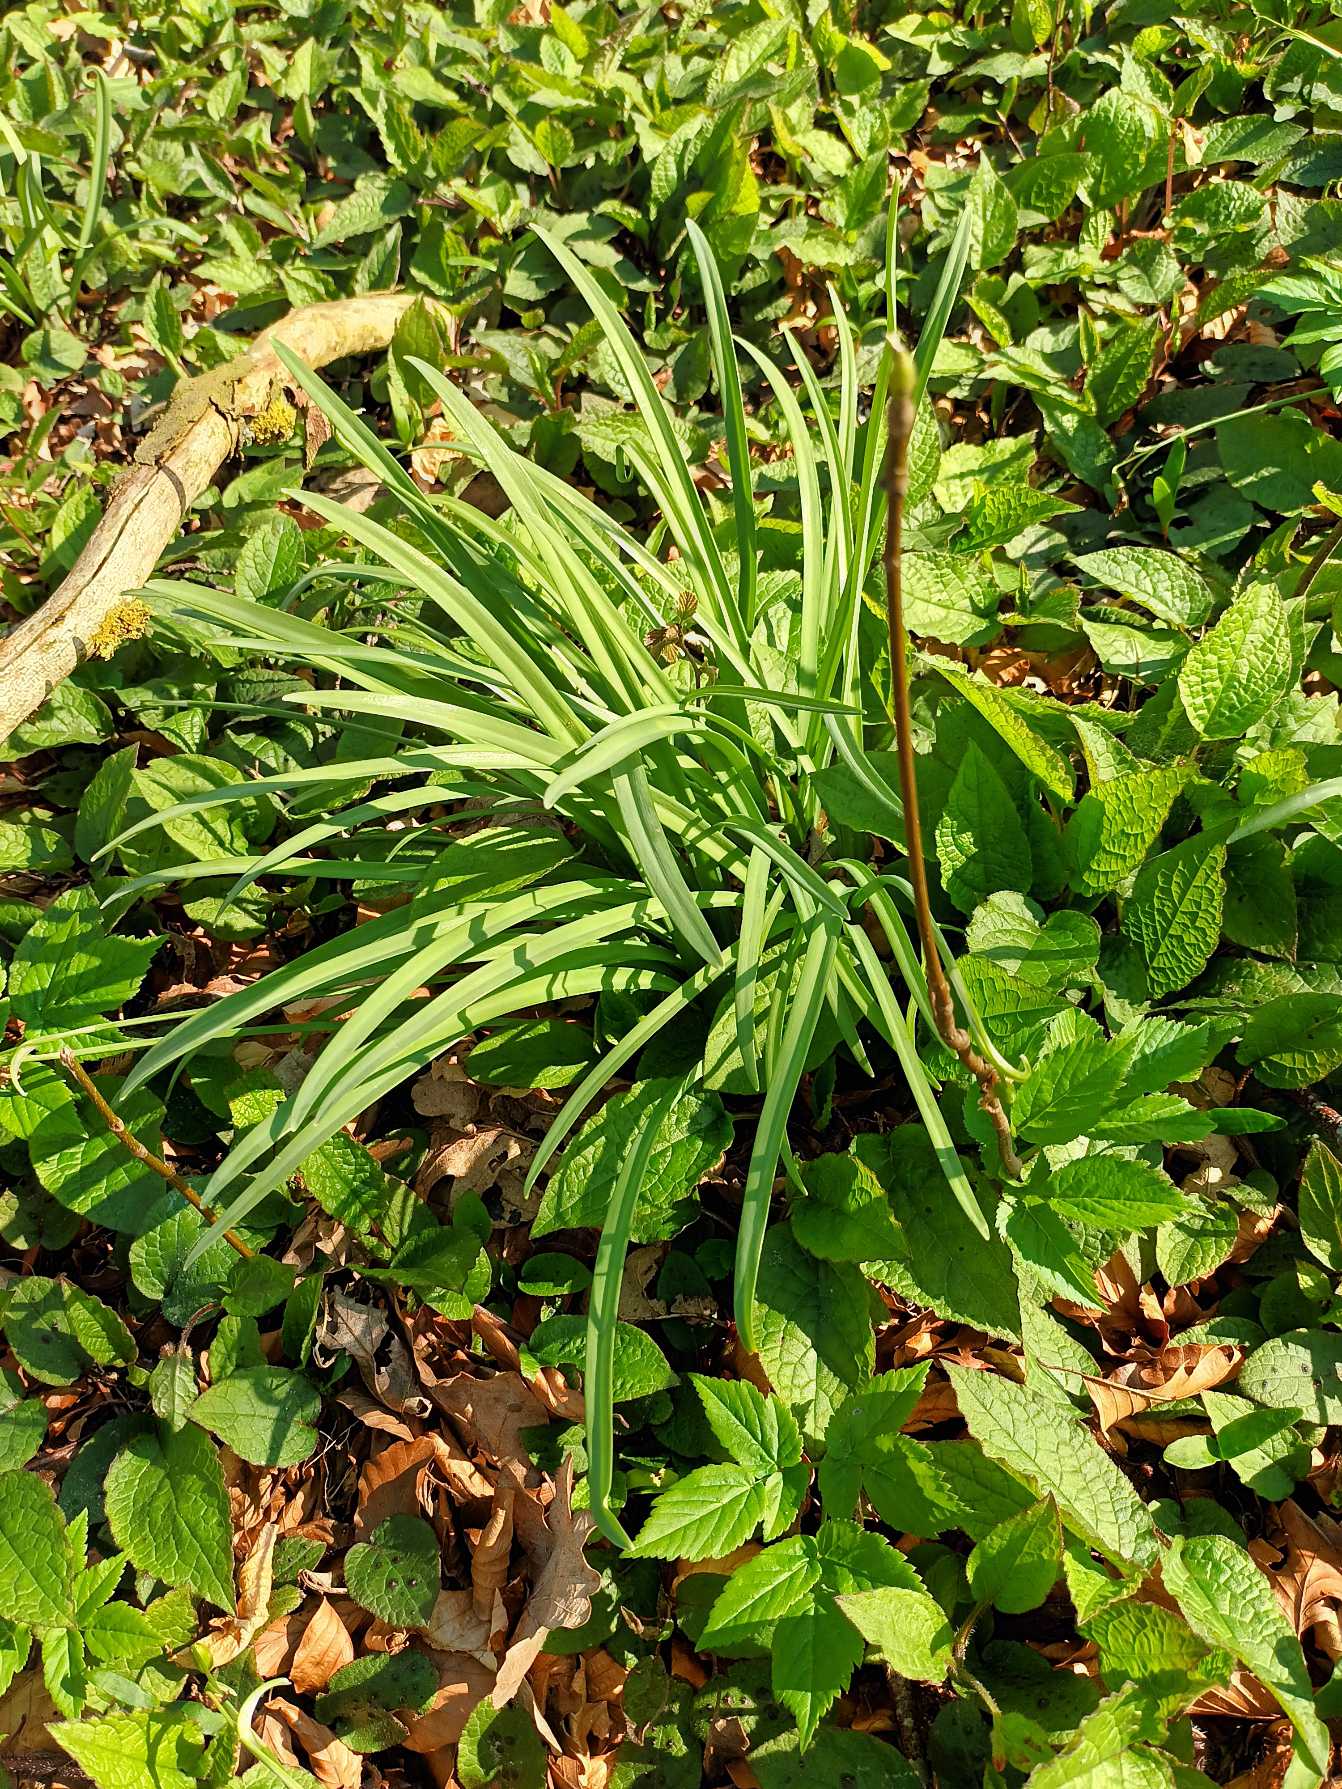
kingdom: Plantae
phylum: Tracheophyta
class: Liliopsida
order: Asparagales
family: Amaryllidaceae
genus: Galanthus
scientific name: Galanthus nivalis
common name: Vintergæk
